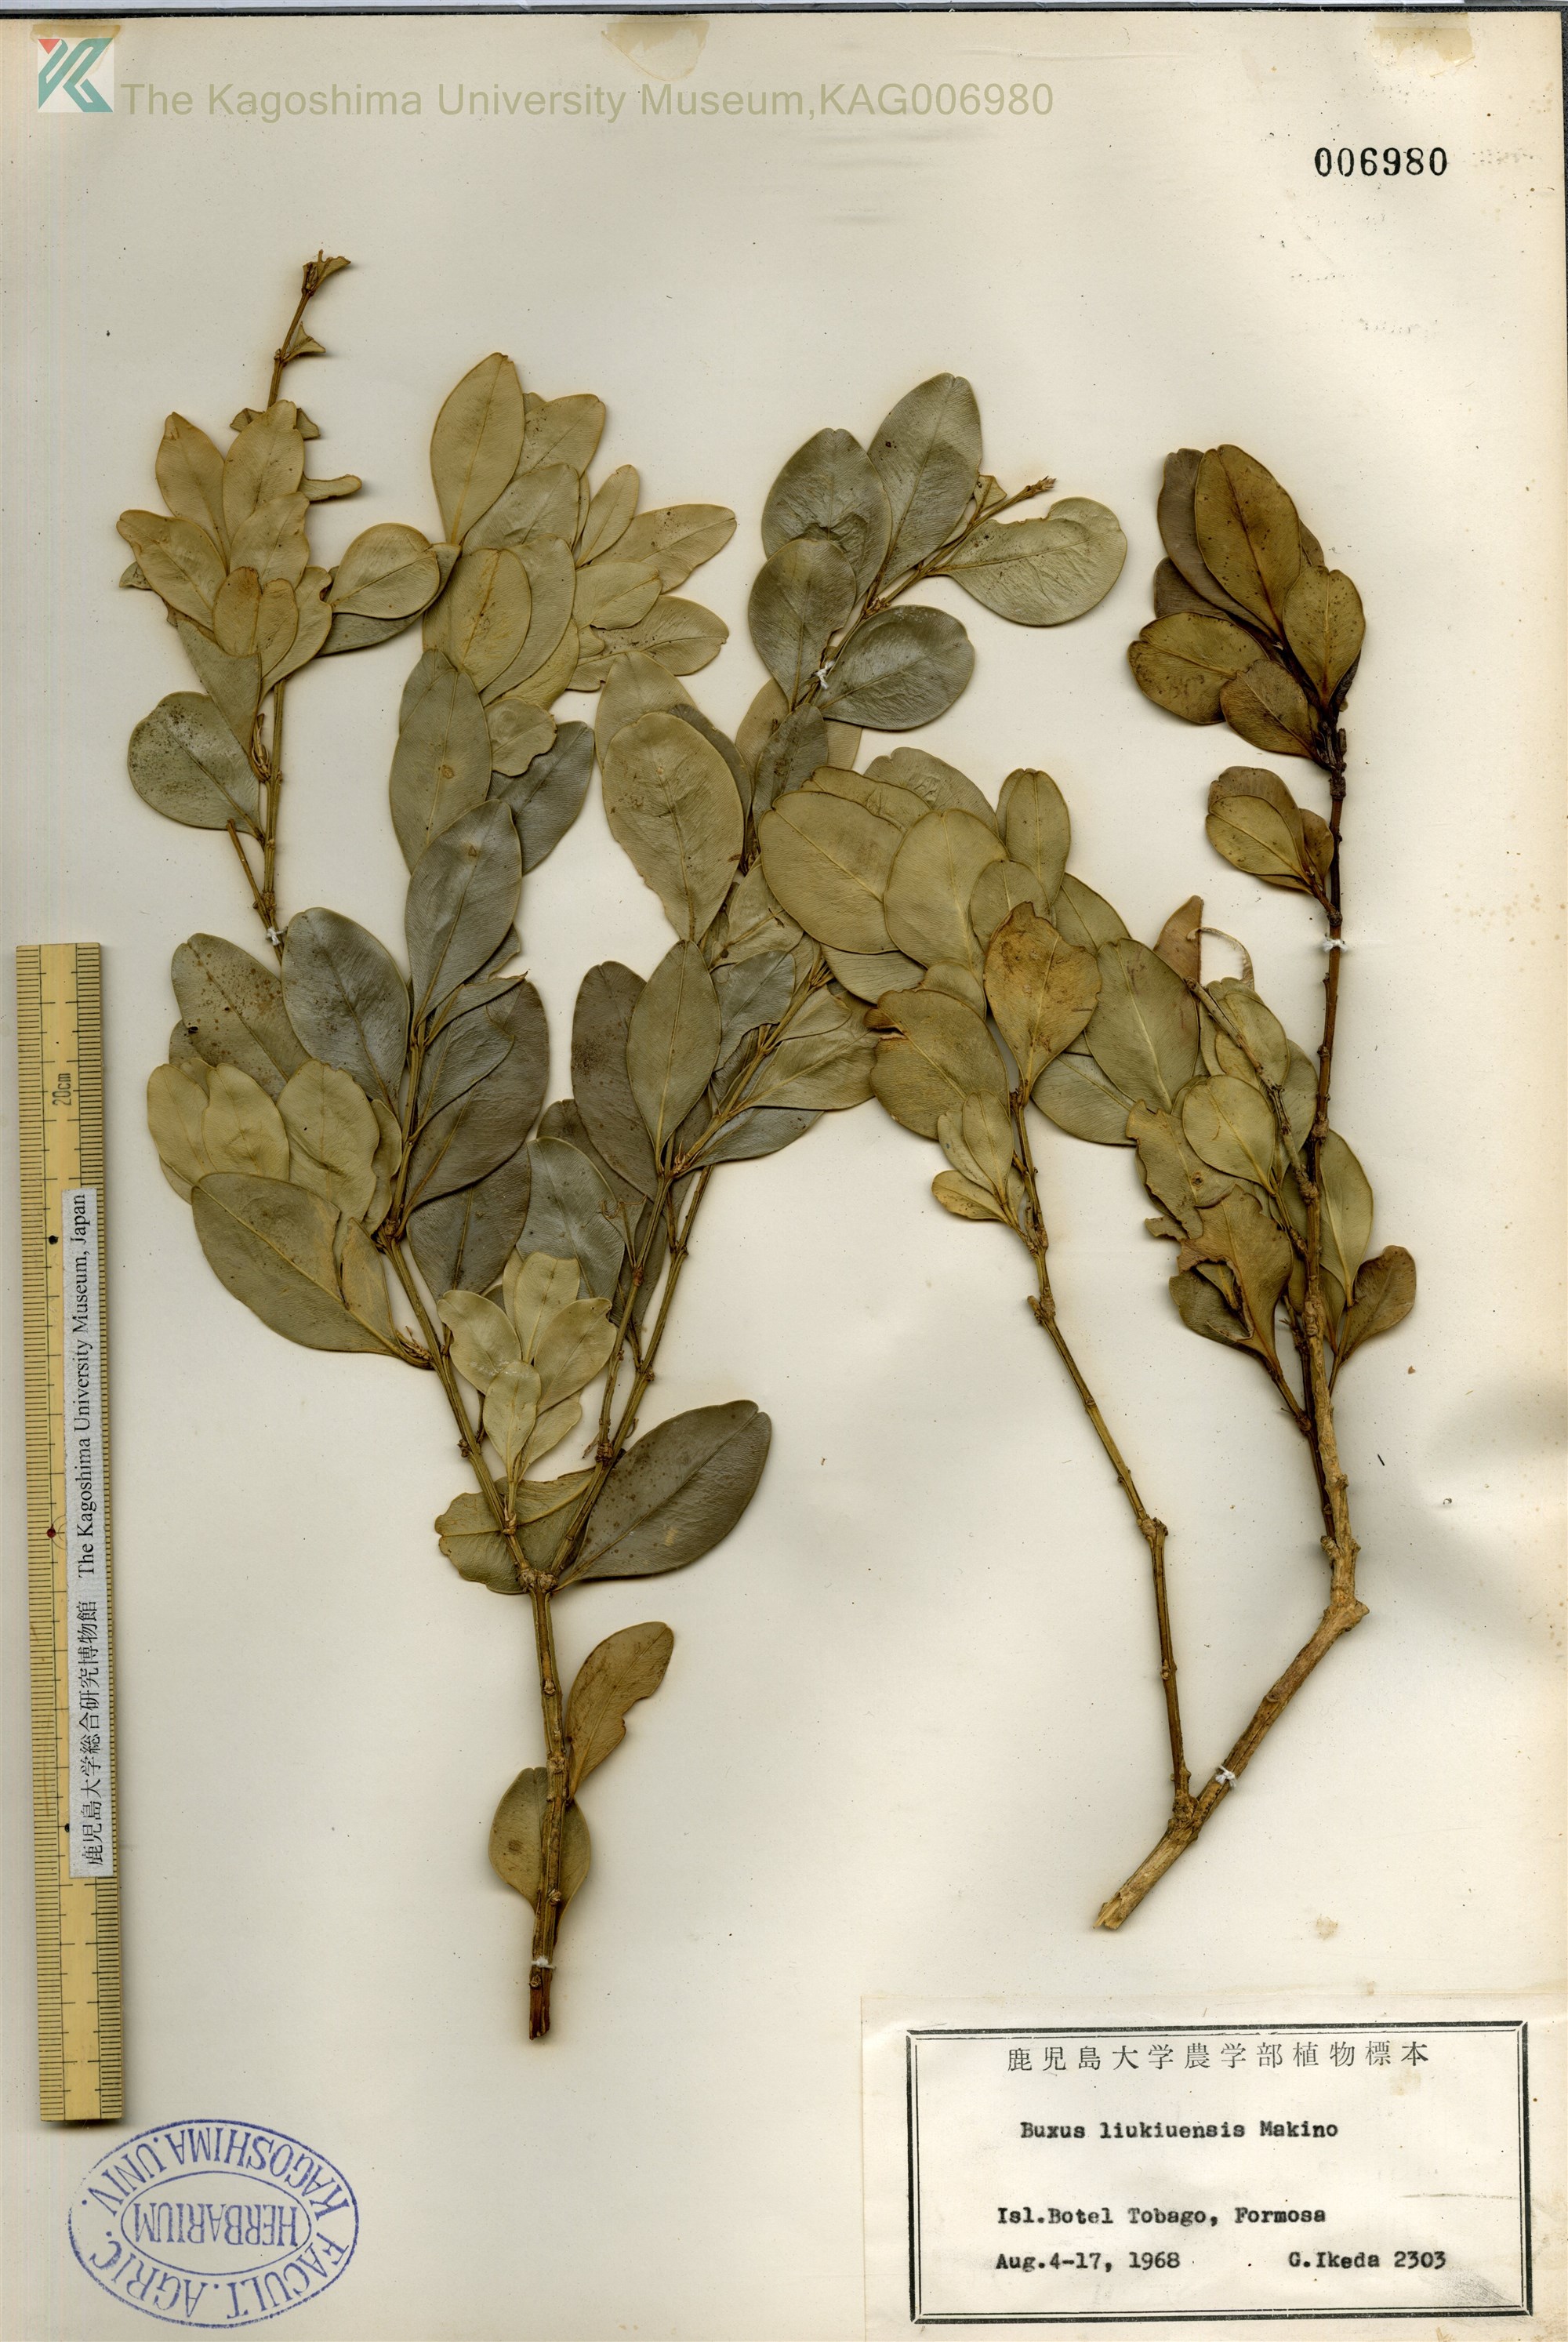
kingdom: Plantae
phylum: Tracheophyta
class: Magnoliopsida
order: Buxales
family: Buxaceae
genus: Buxus
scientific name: Buxus liukiuensis
